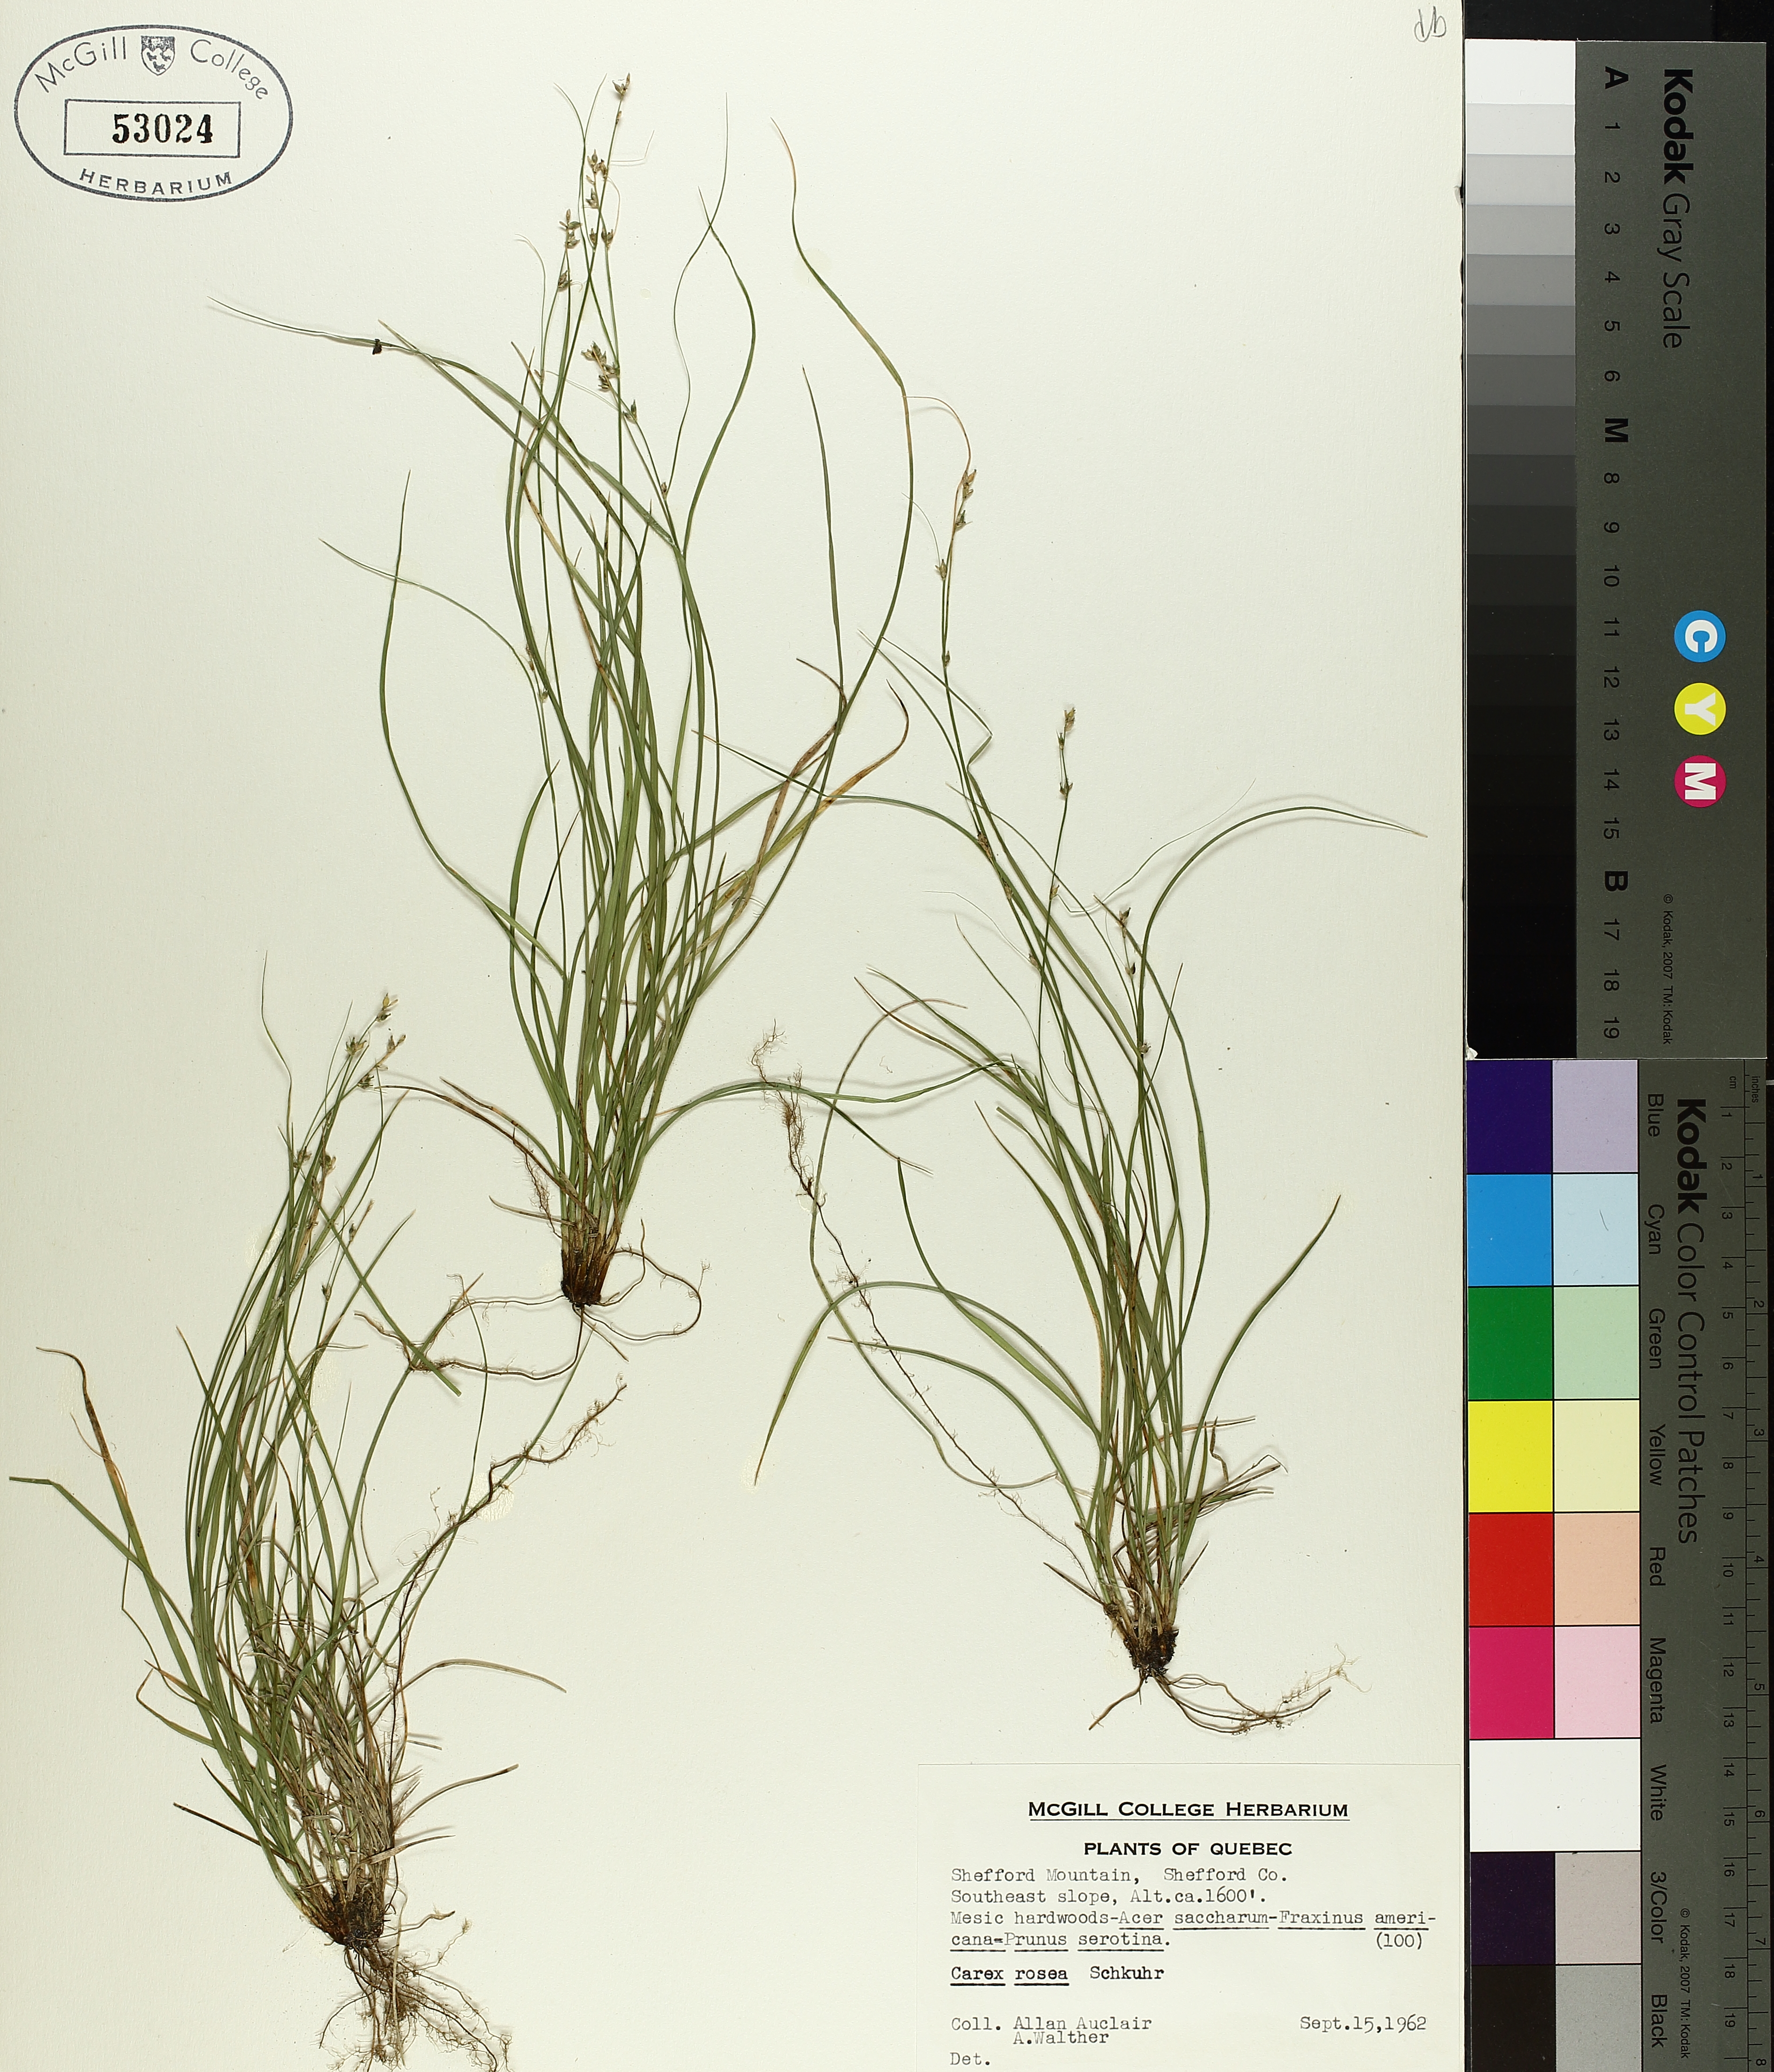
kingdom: Plantae
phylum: Tracheophyta
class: Liliopsida
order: Poales
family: Cyperaceae
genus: Carex
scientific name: Carex rosea
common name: Curly-styled wood sedge
